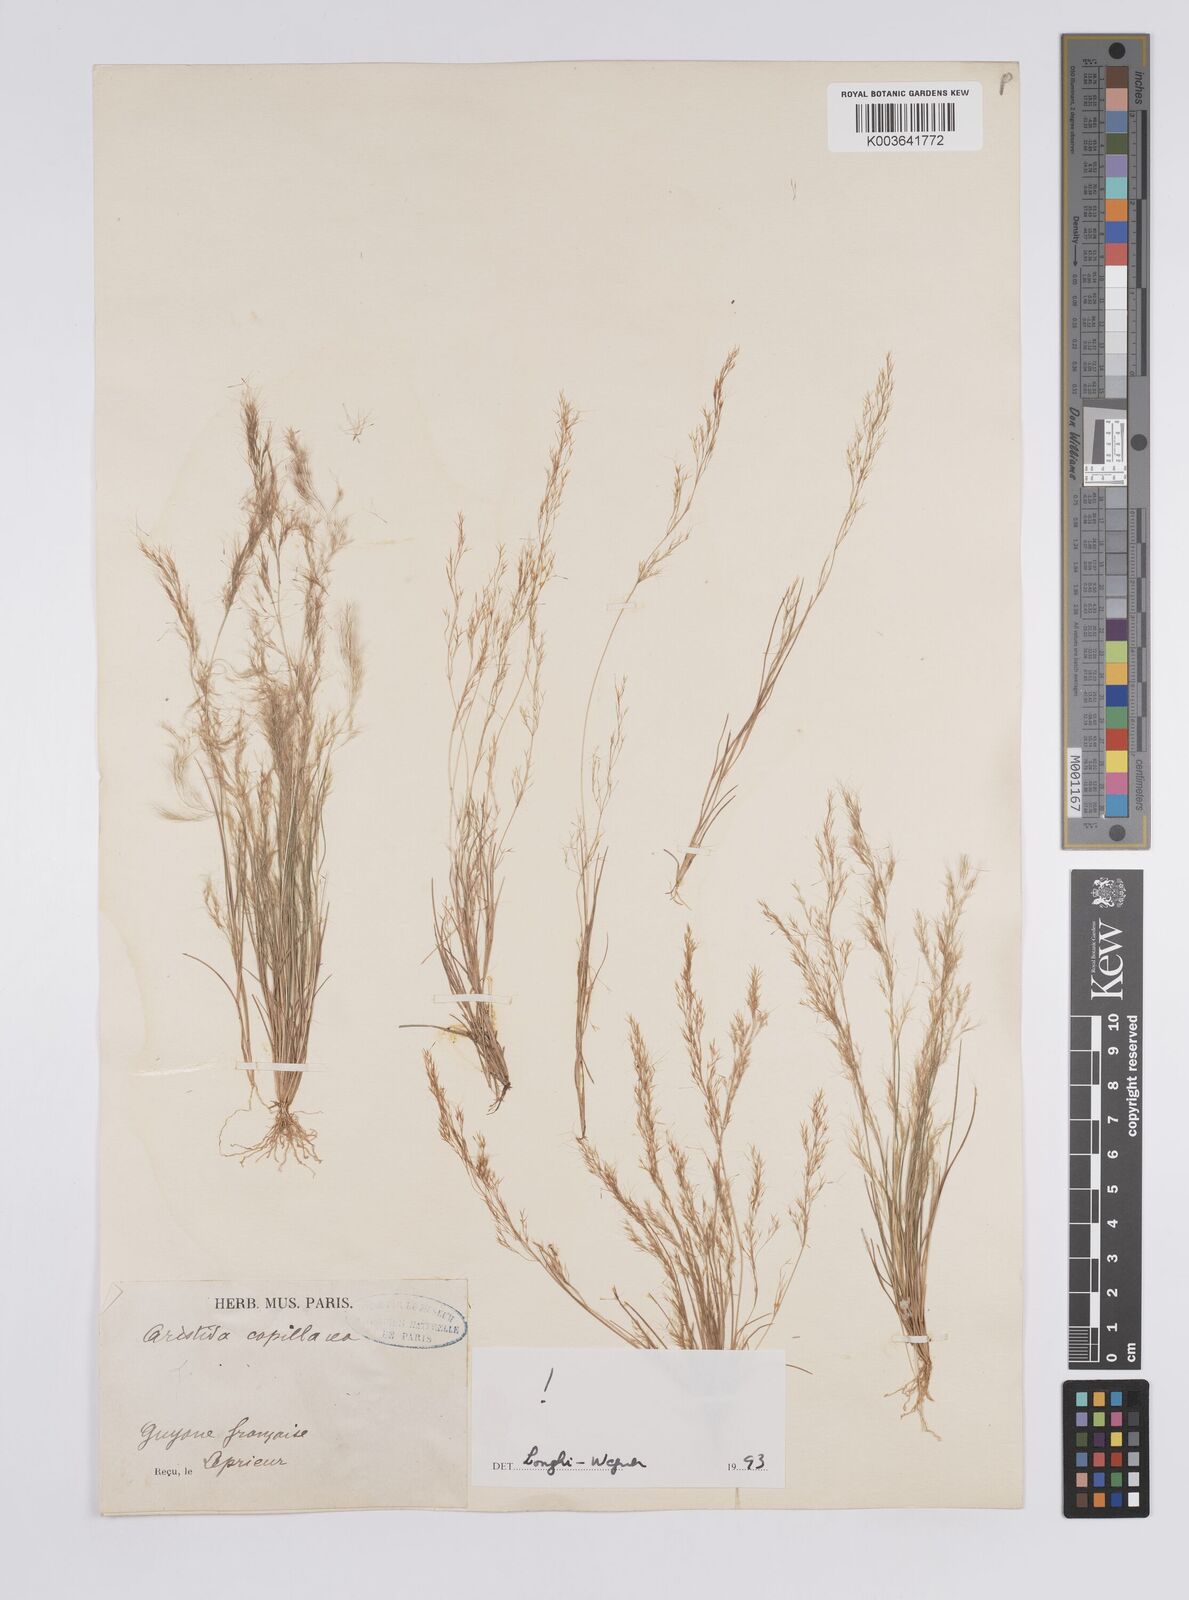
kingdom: Plantae
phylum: Tracheophyta
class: Liliopsida
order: Poales
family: Poaceae
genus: Aristida
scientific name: Aristida capillacea
